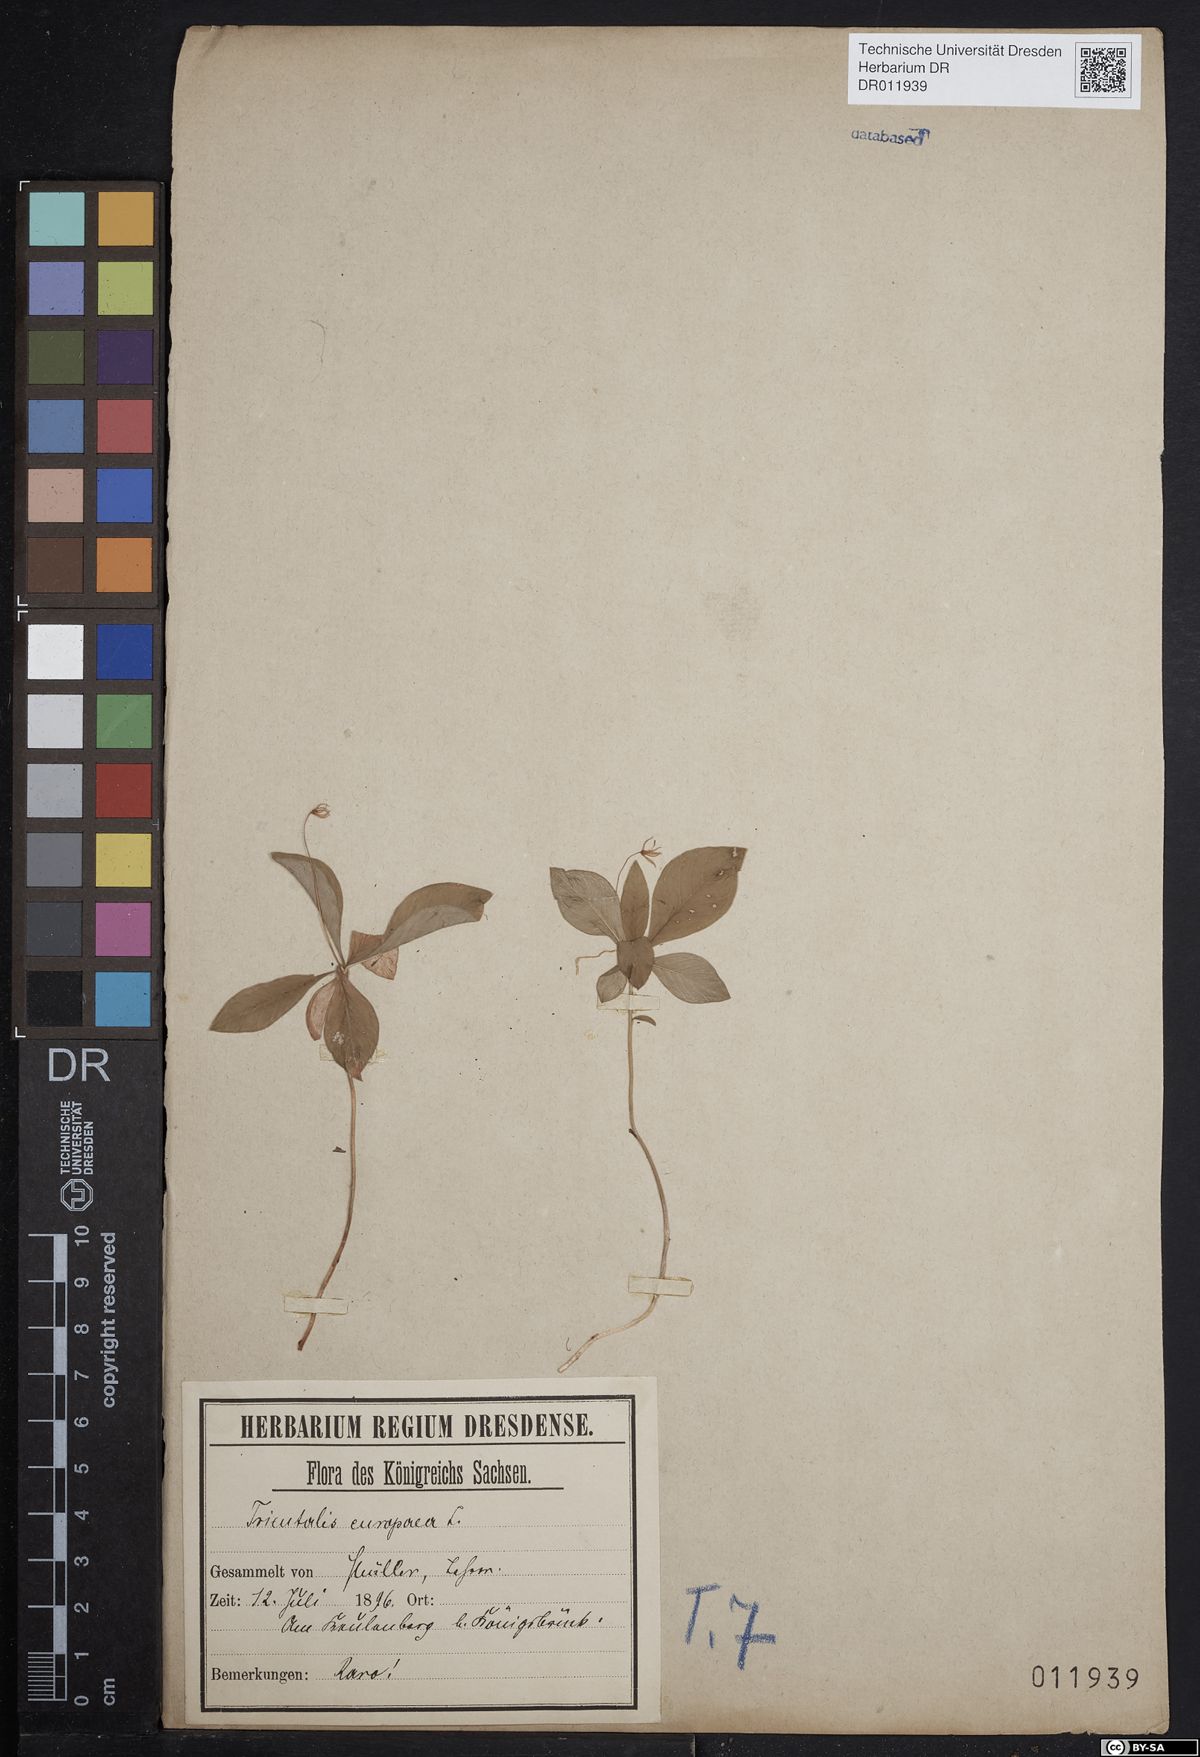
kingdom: Plantae
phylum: Tracheophyta
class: Magnoliopsida
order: Ericales
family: Primulaceae
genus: Lysimachia
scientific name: Lysimachia europaea
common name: Arctic starflower
